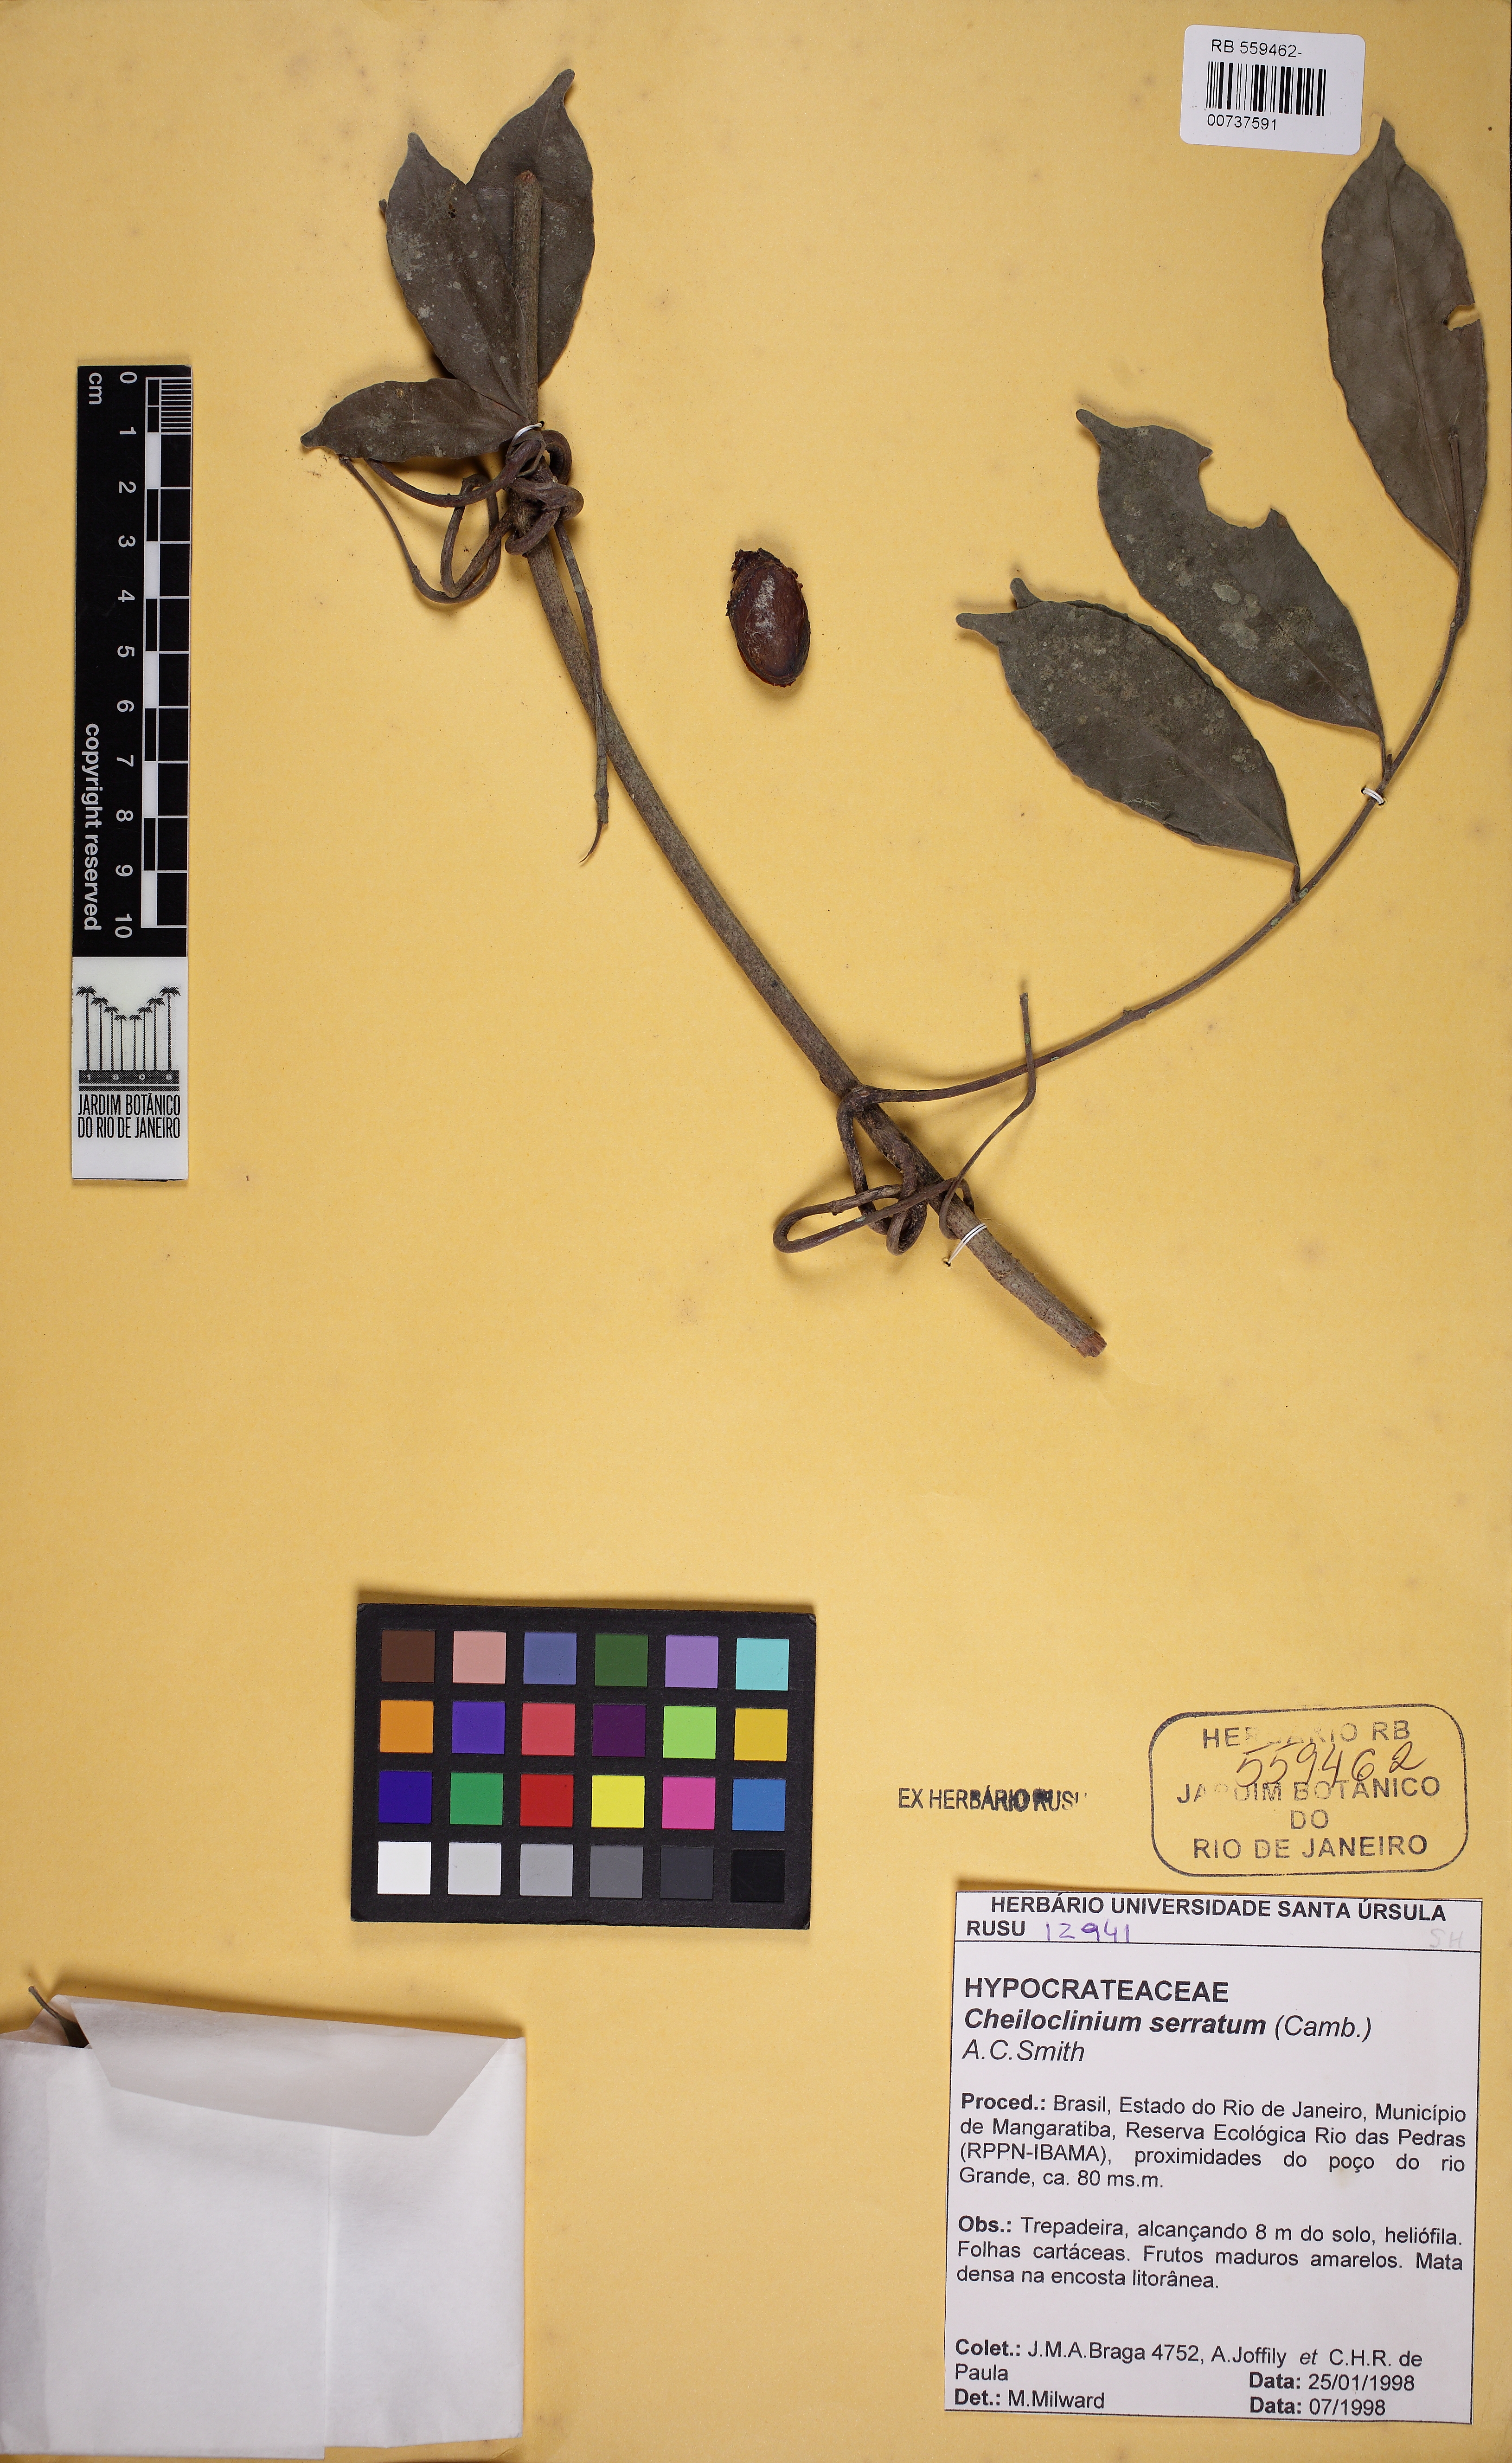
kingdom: Plantae
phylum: Tracheophyta
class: Magnoliopsida
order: Celastrales
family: Celastraceae
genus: Cheiloclinium
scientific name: Cheiloclinium serratum
